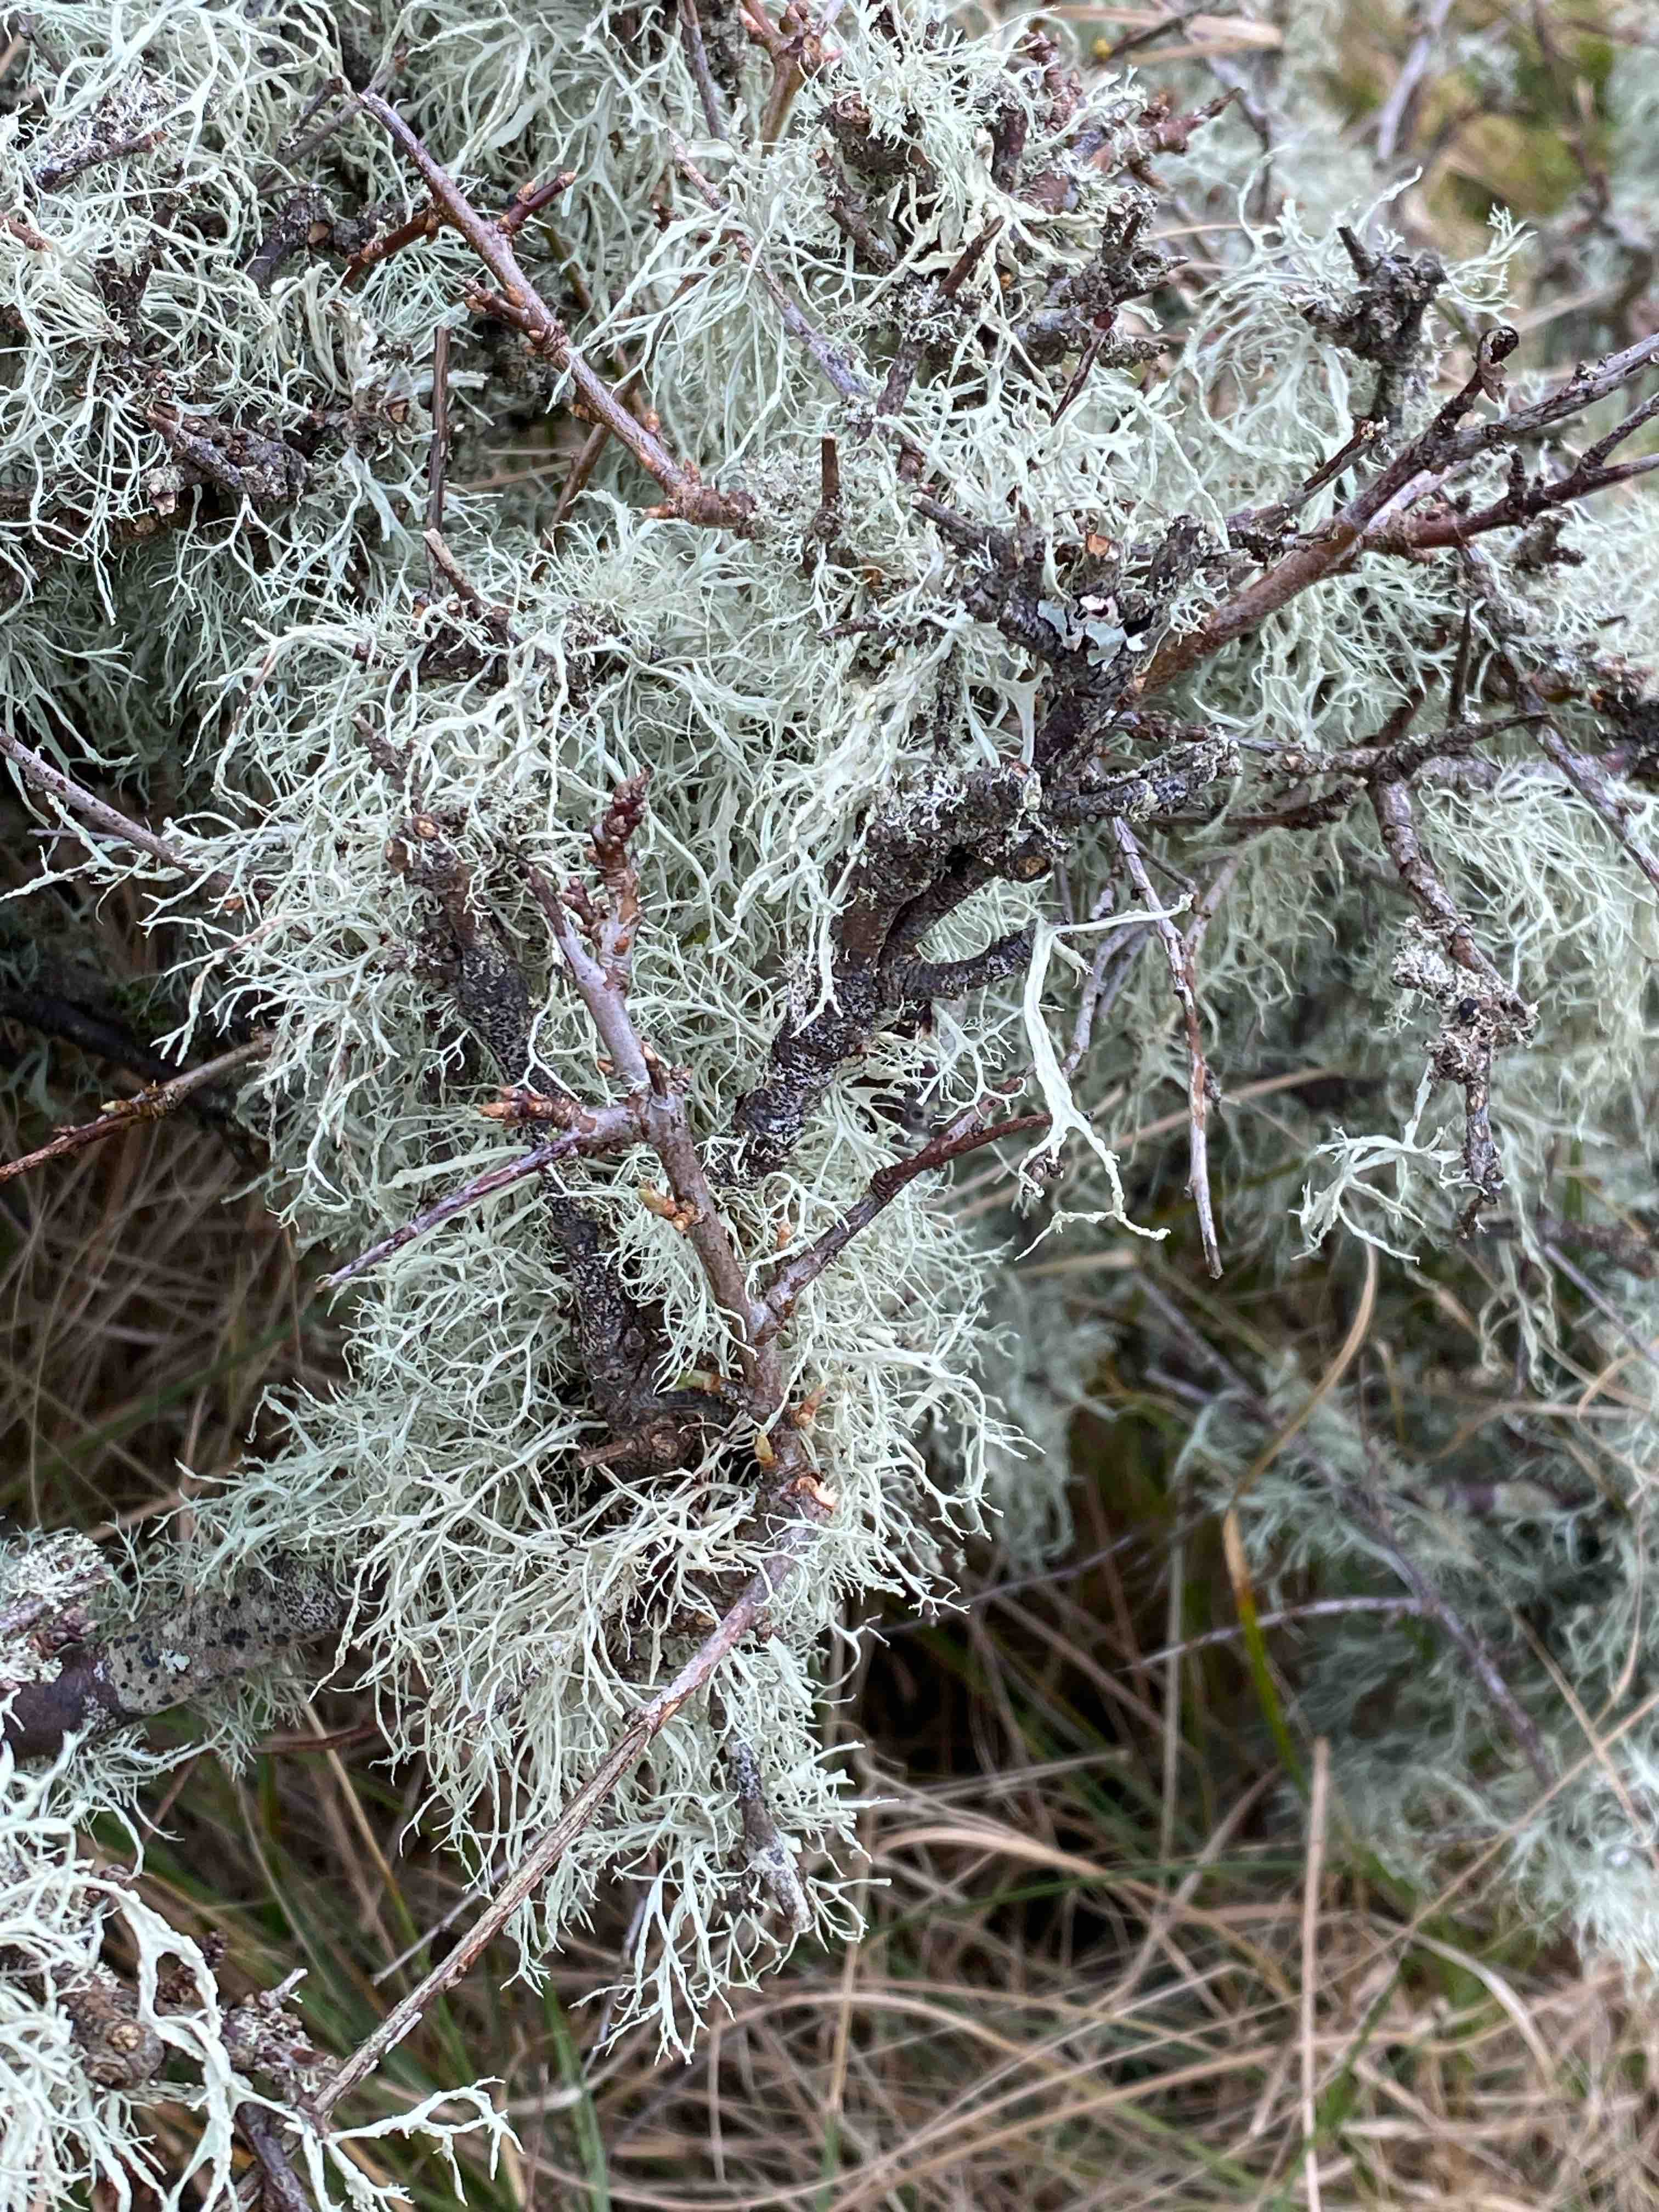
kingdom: Fungi
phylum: Ascomycota
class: Lecanoromycetes
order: Lecanorales
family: Ramalinaceae
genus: Ramalina
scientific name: Ramalina farinacea
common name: melet grenlav
